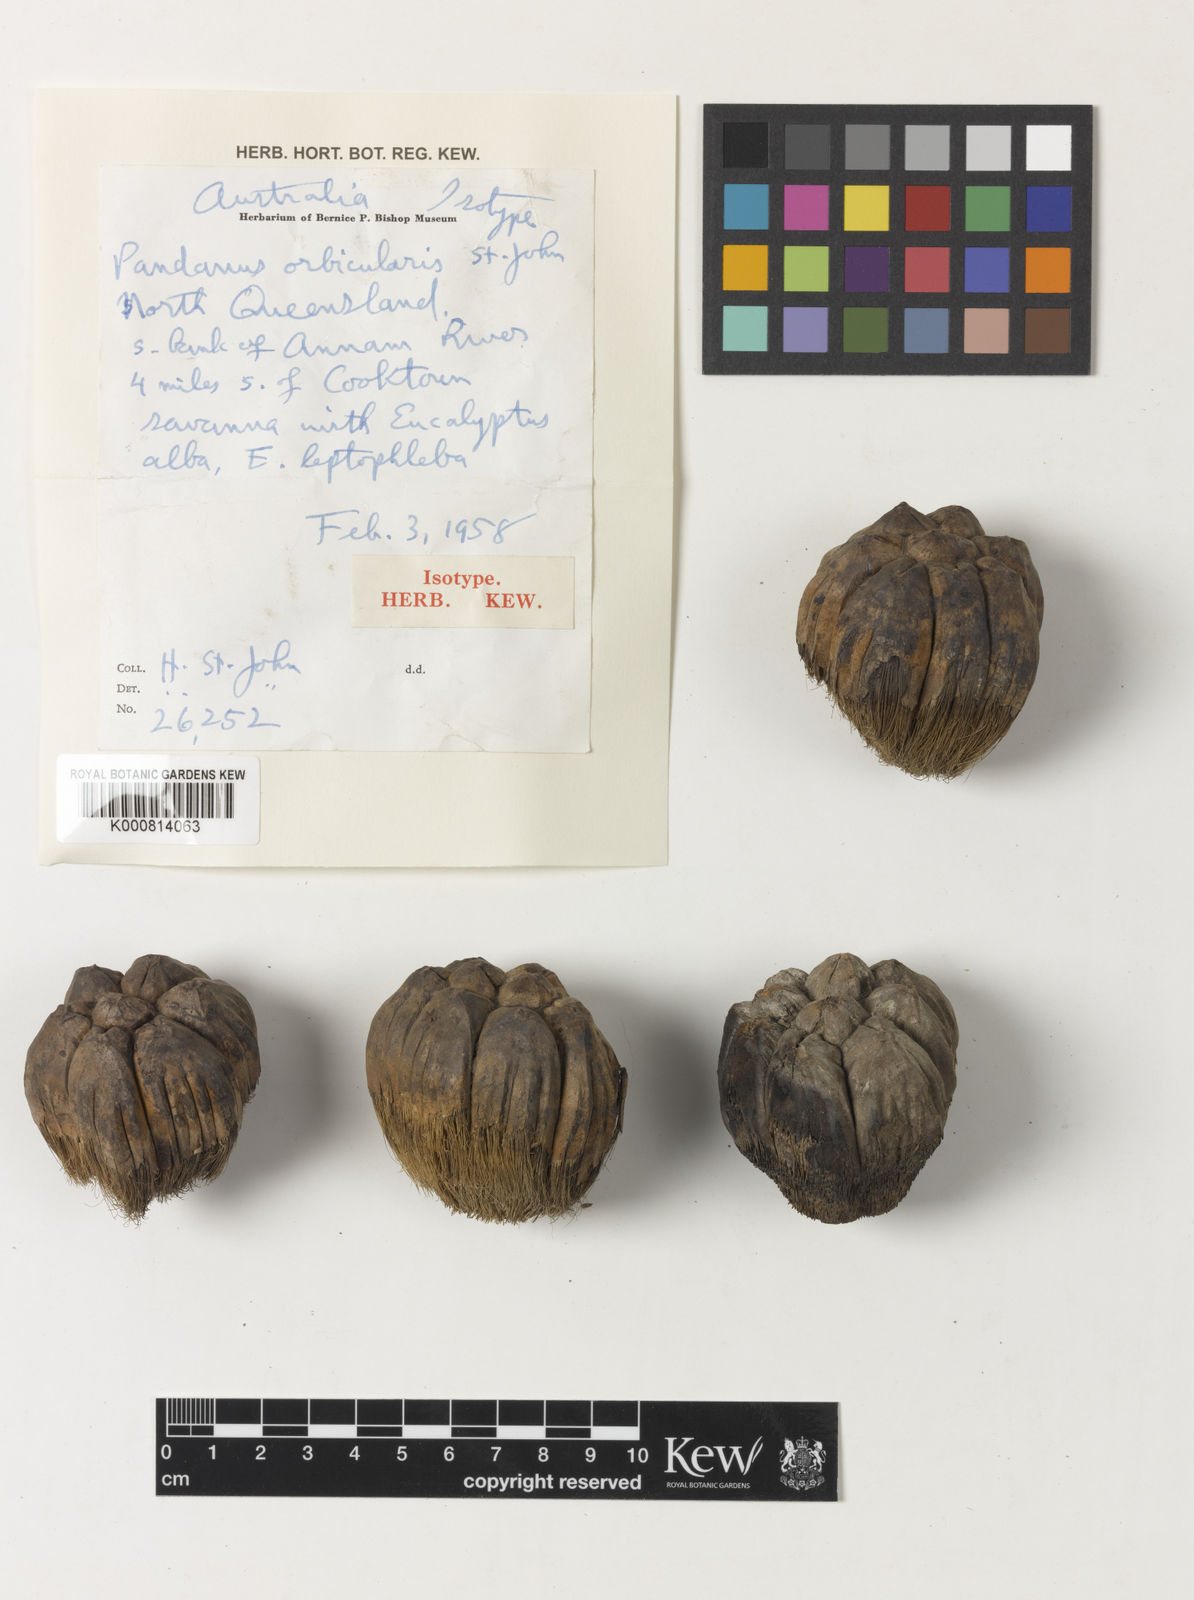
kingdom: Plantae
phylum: Tracheophyta
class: Liliopsida
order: Pandanales
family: Pandanaceae
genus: Pandanus
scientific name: Pandanus spiralis
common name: Screw-pine
